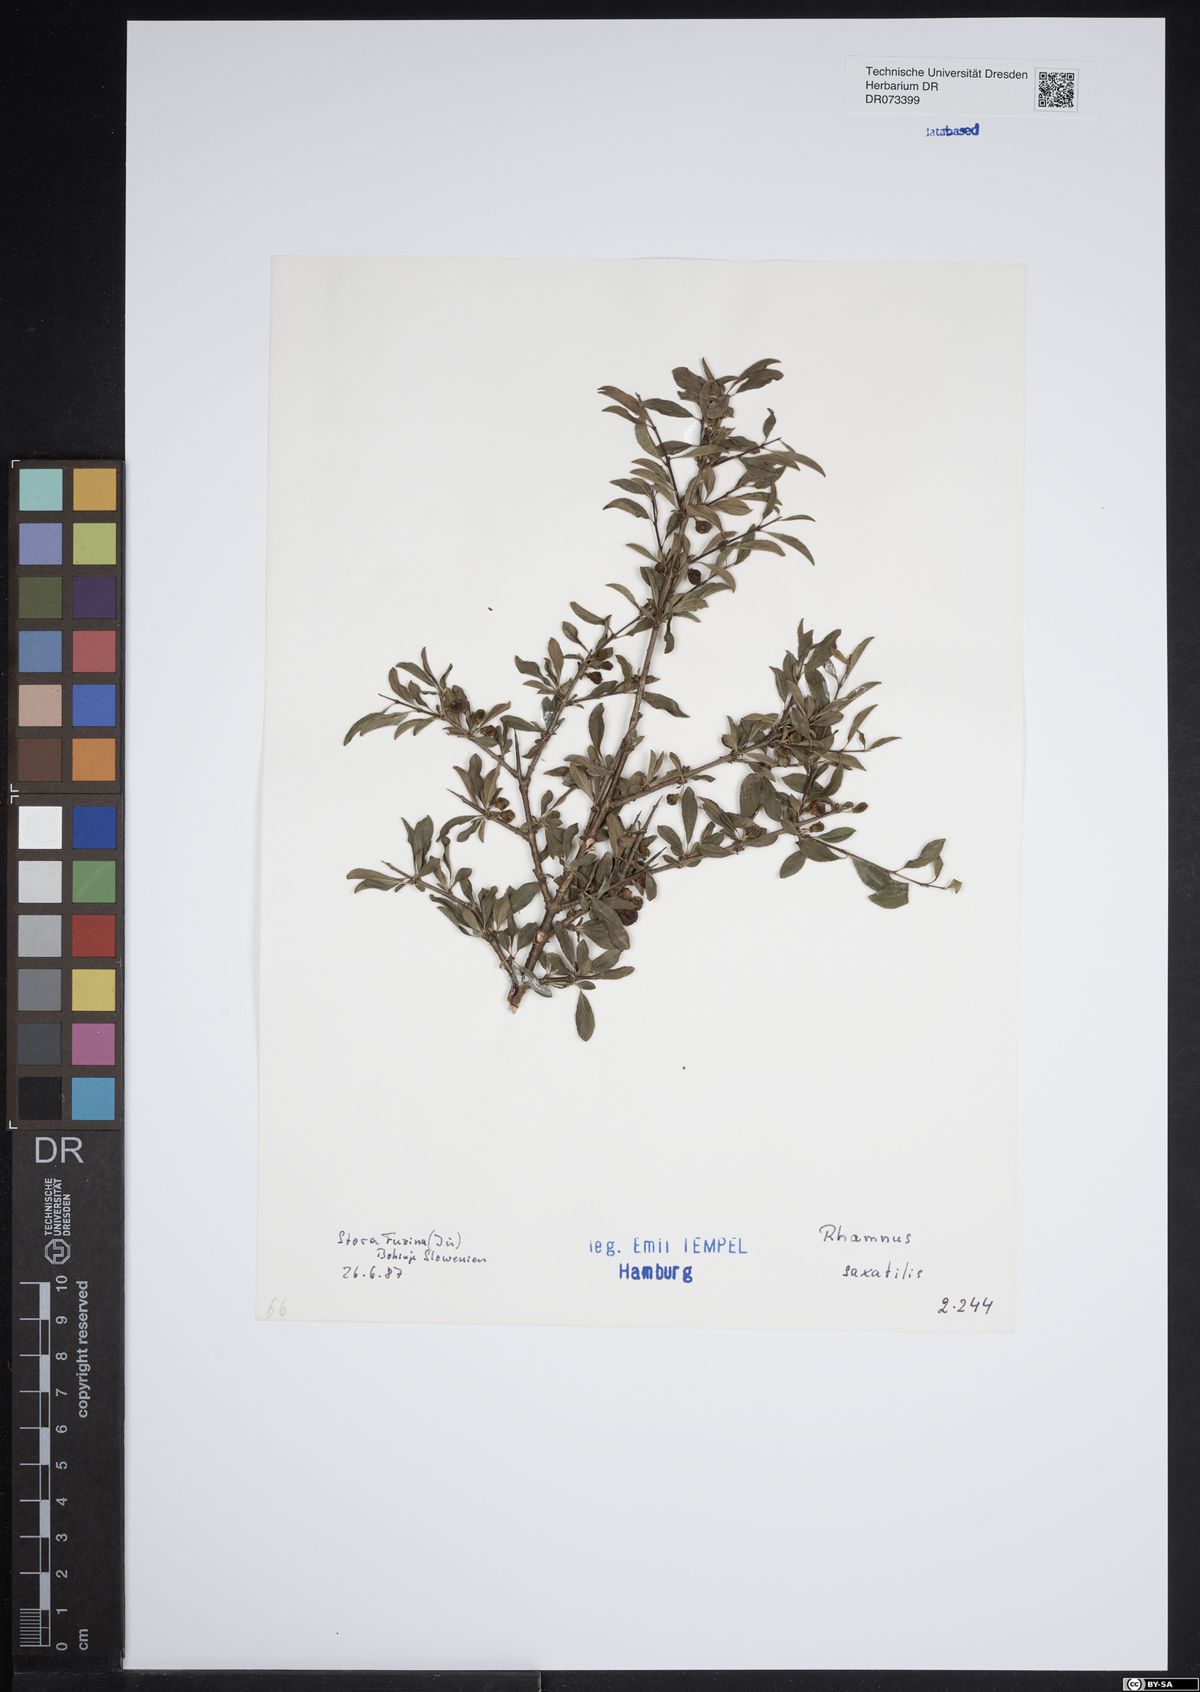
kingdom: Plantae
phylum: Tracheophyta
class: Magnoliopsida
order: Rosales
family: Rhamnaceae
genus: Rhamnus
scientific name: Rhamnus saxatilis
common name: Rock buckthorn
